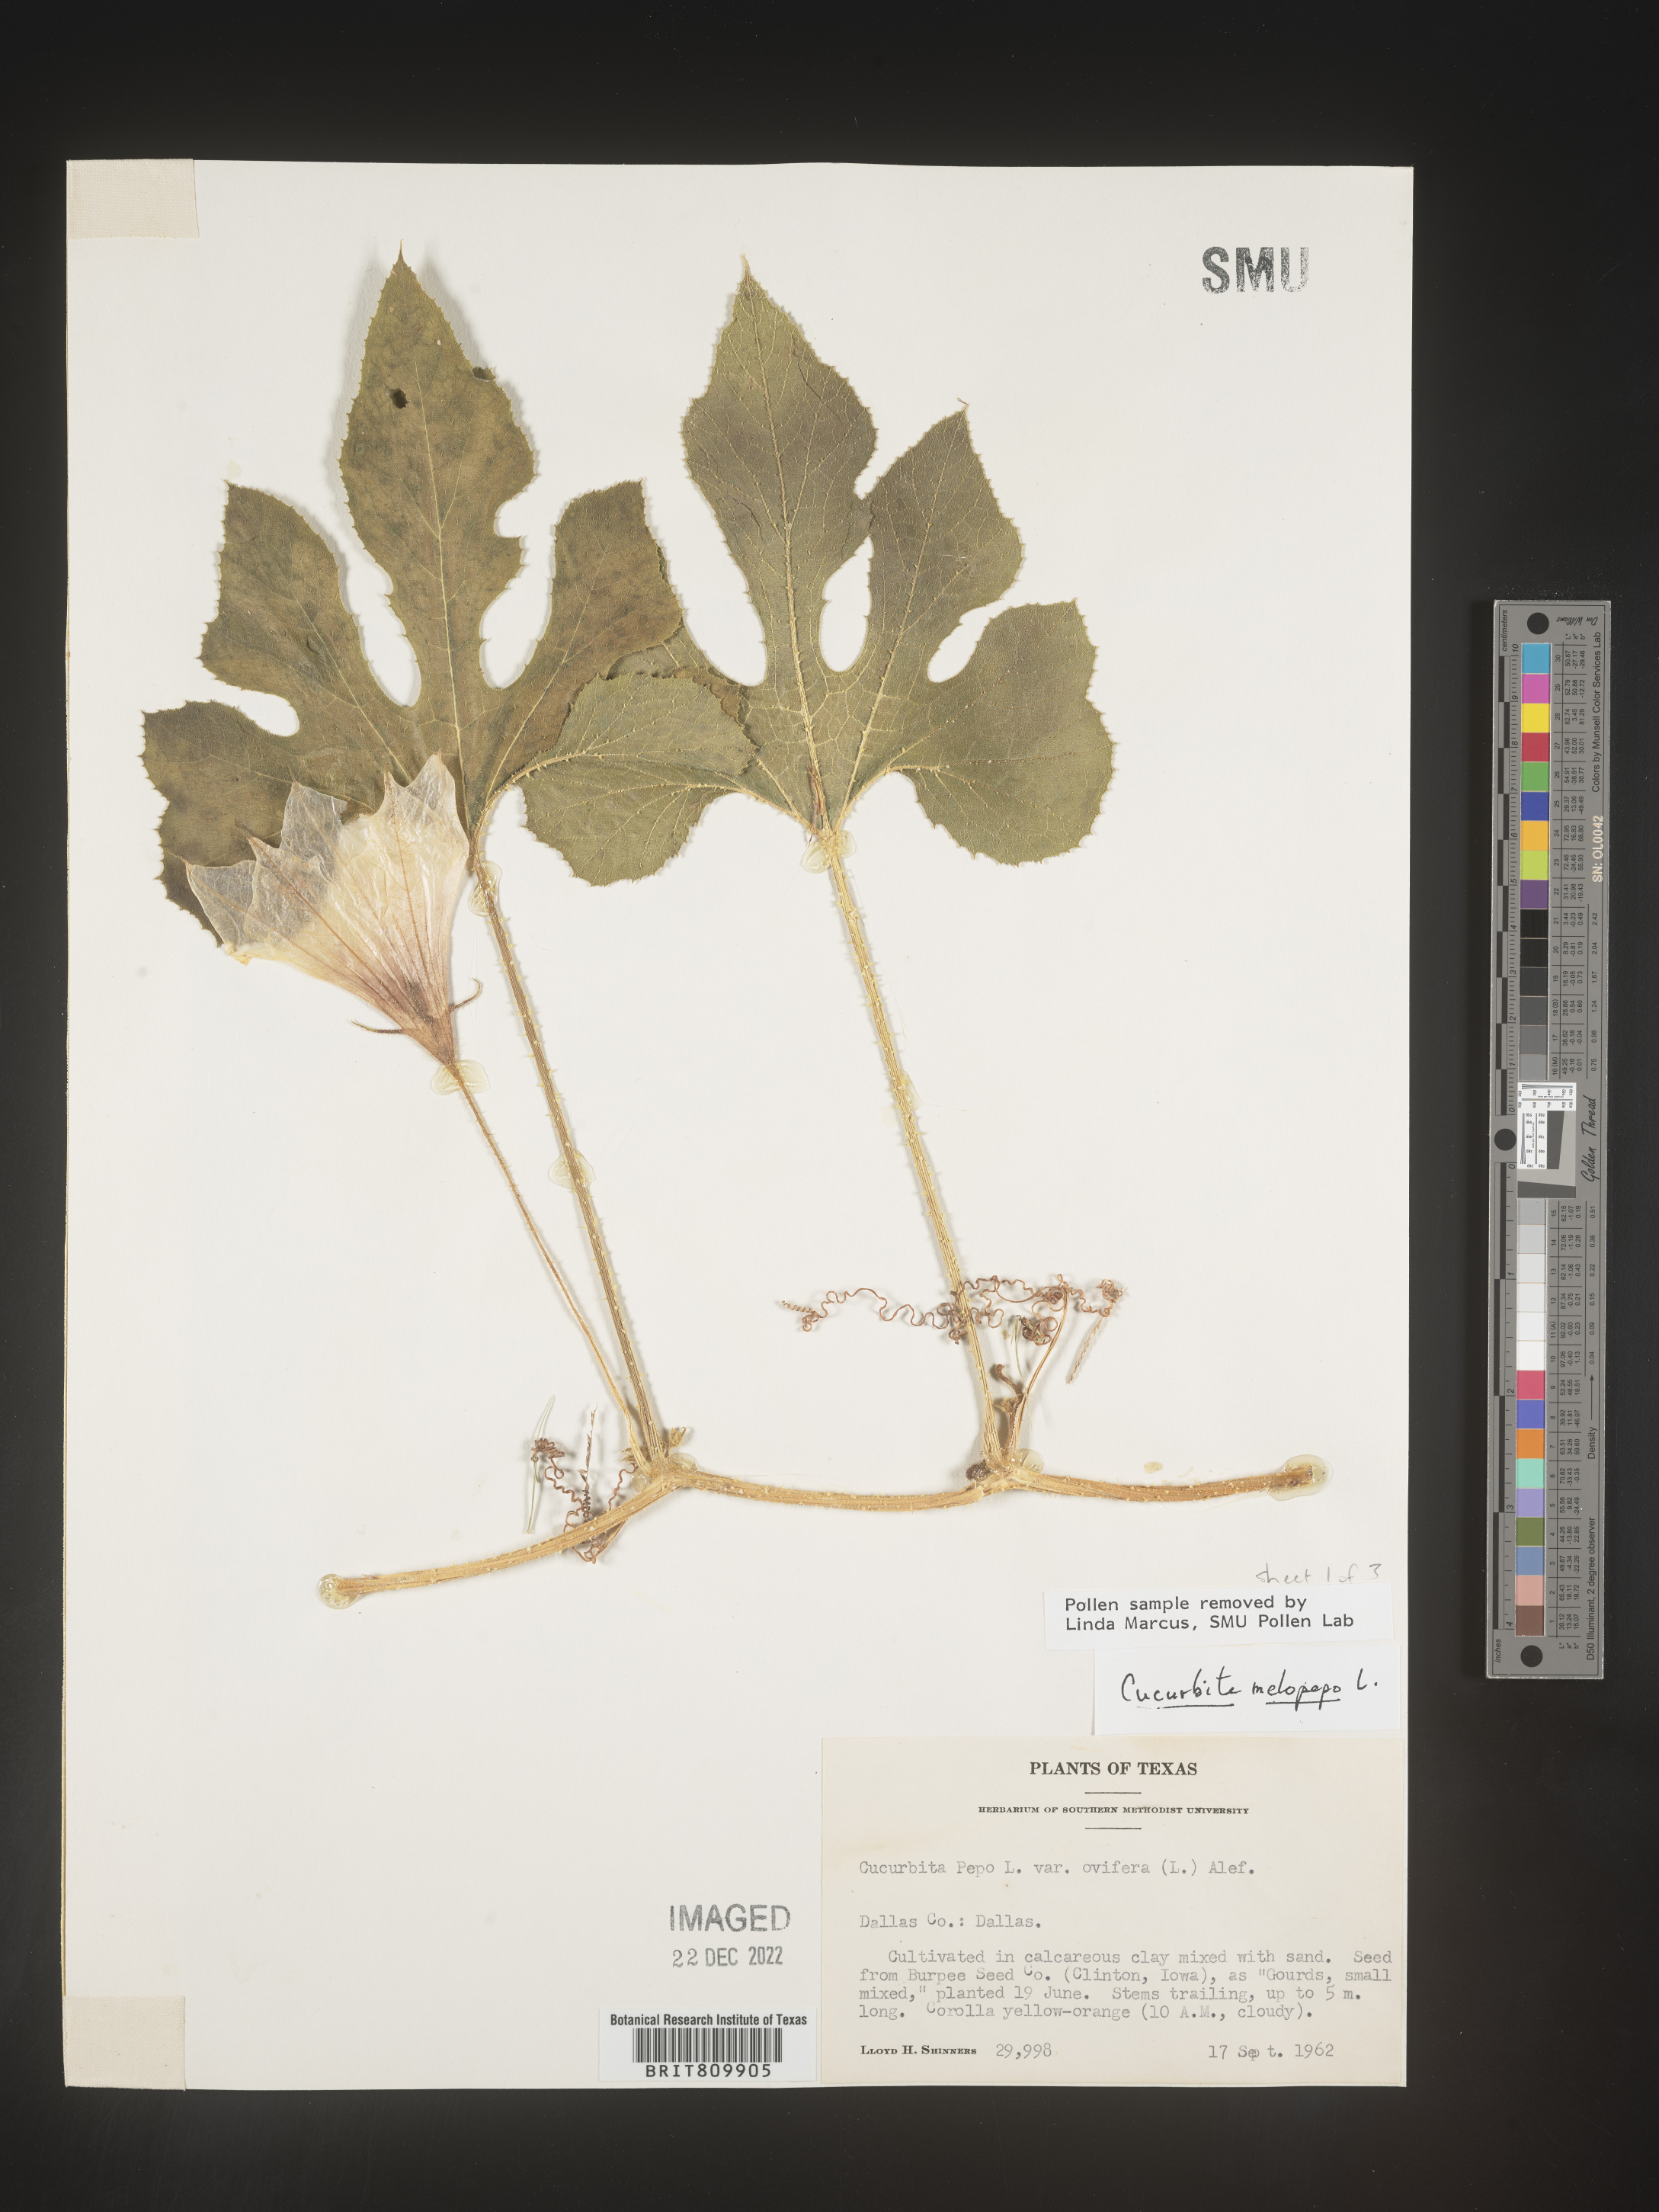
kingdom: Plantae
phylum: Tracheophyta
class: Magnoliopsida
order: Cucurbitales
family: Cucurbitaceae
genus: Cucurbita
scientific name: Cucurbita
